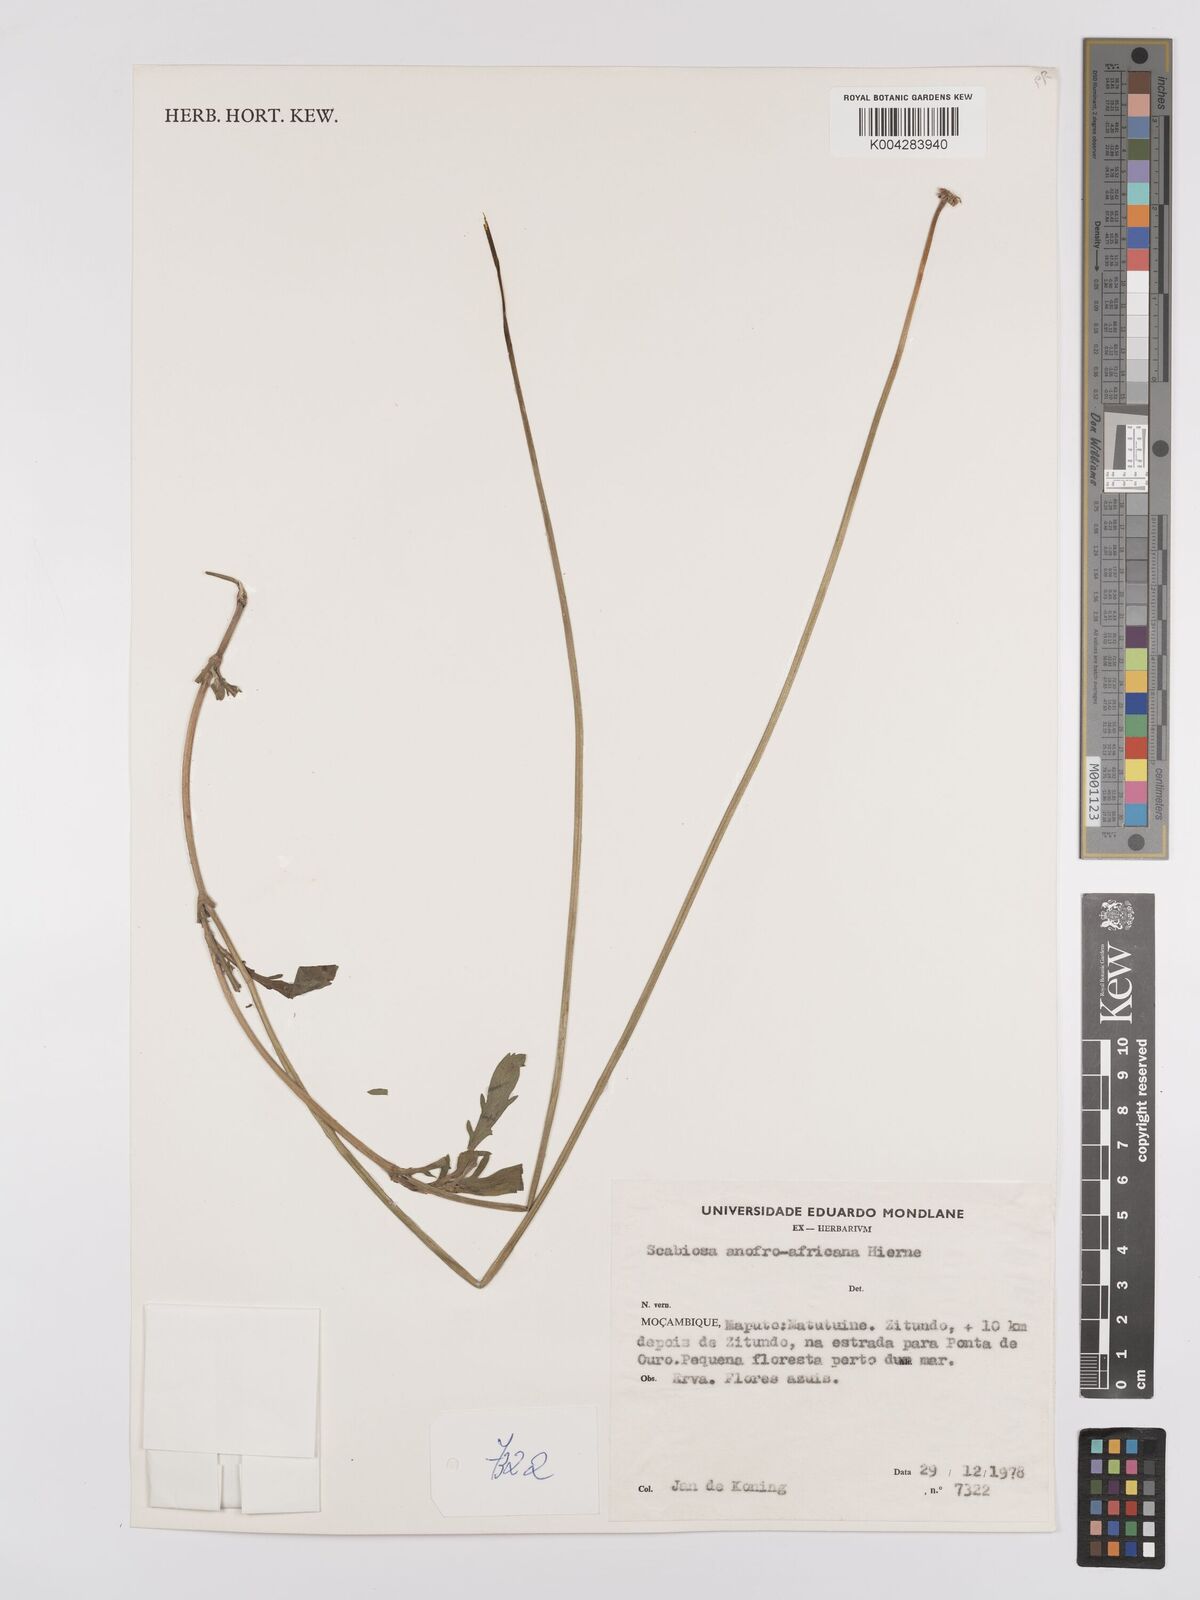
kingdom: Plantae
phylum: Tracheophyta
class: Magnoliopsida
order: Dipsacales
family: Caprifoliaceae
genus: Scabiosa
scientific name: Scabiosa austroafricana
